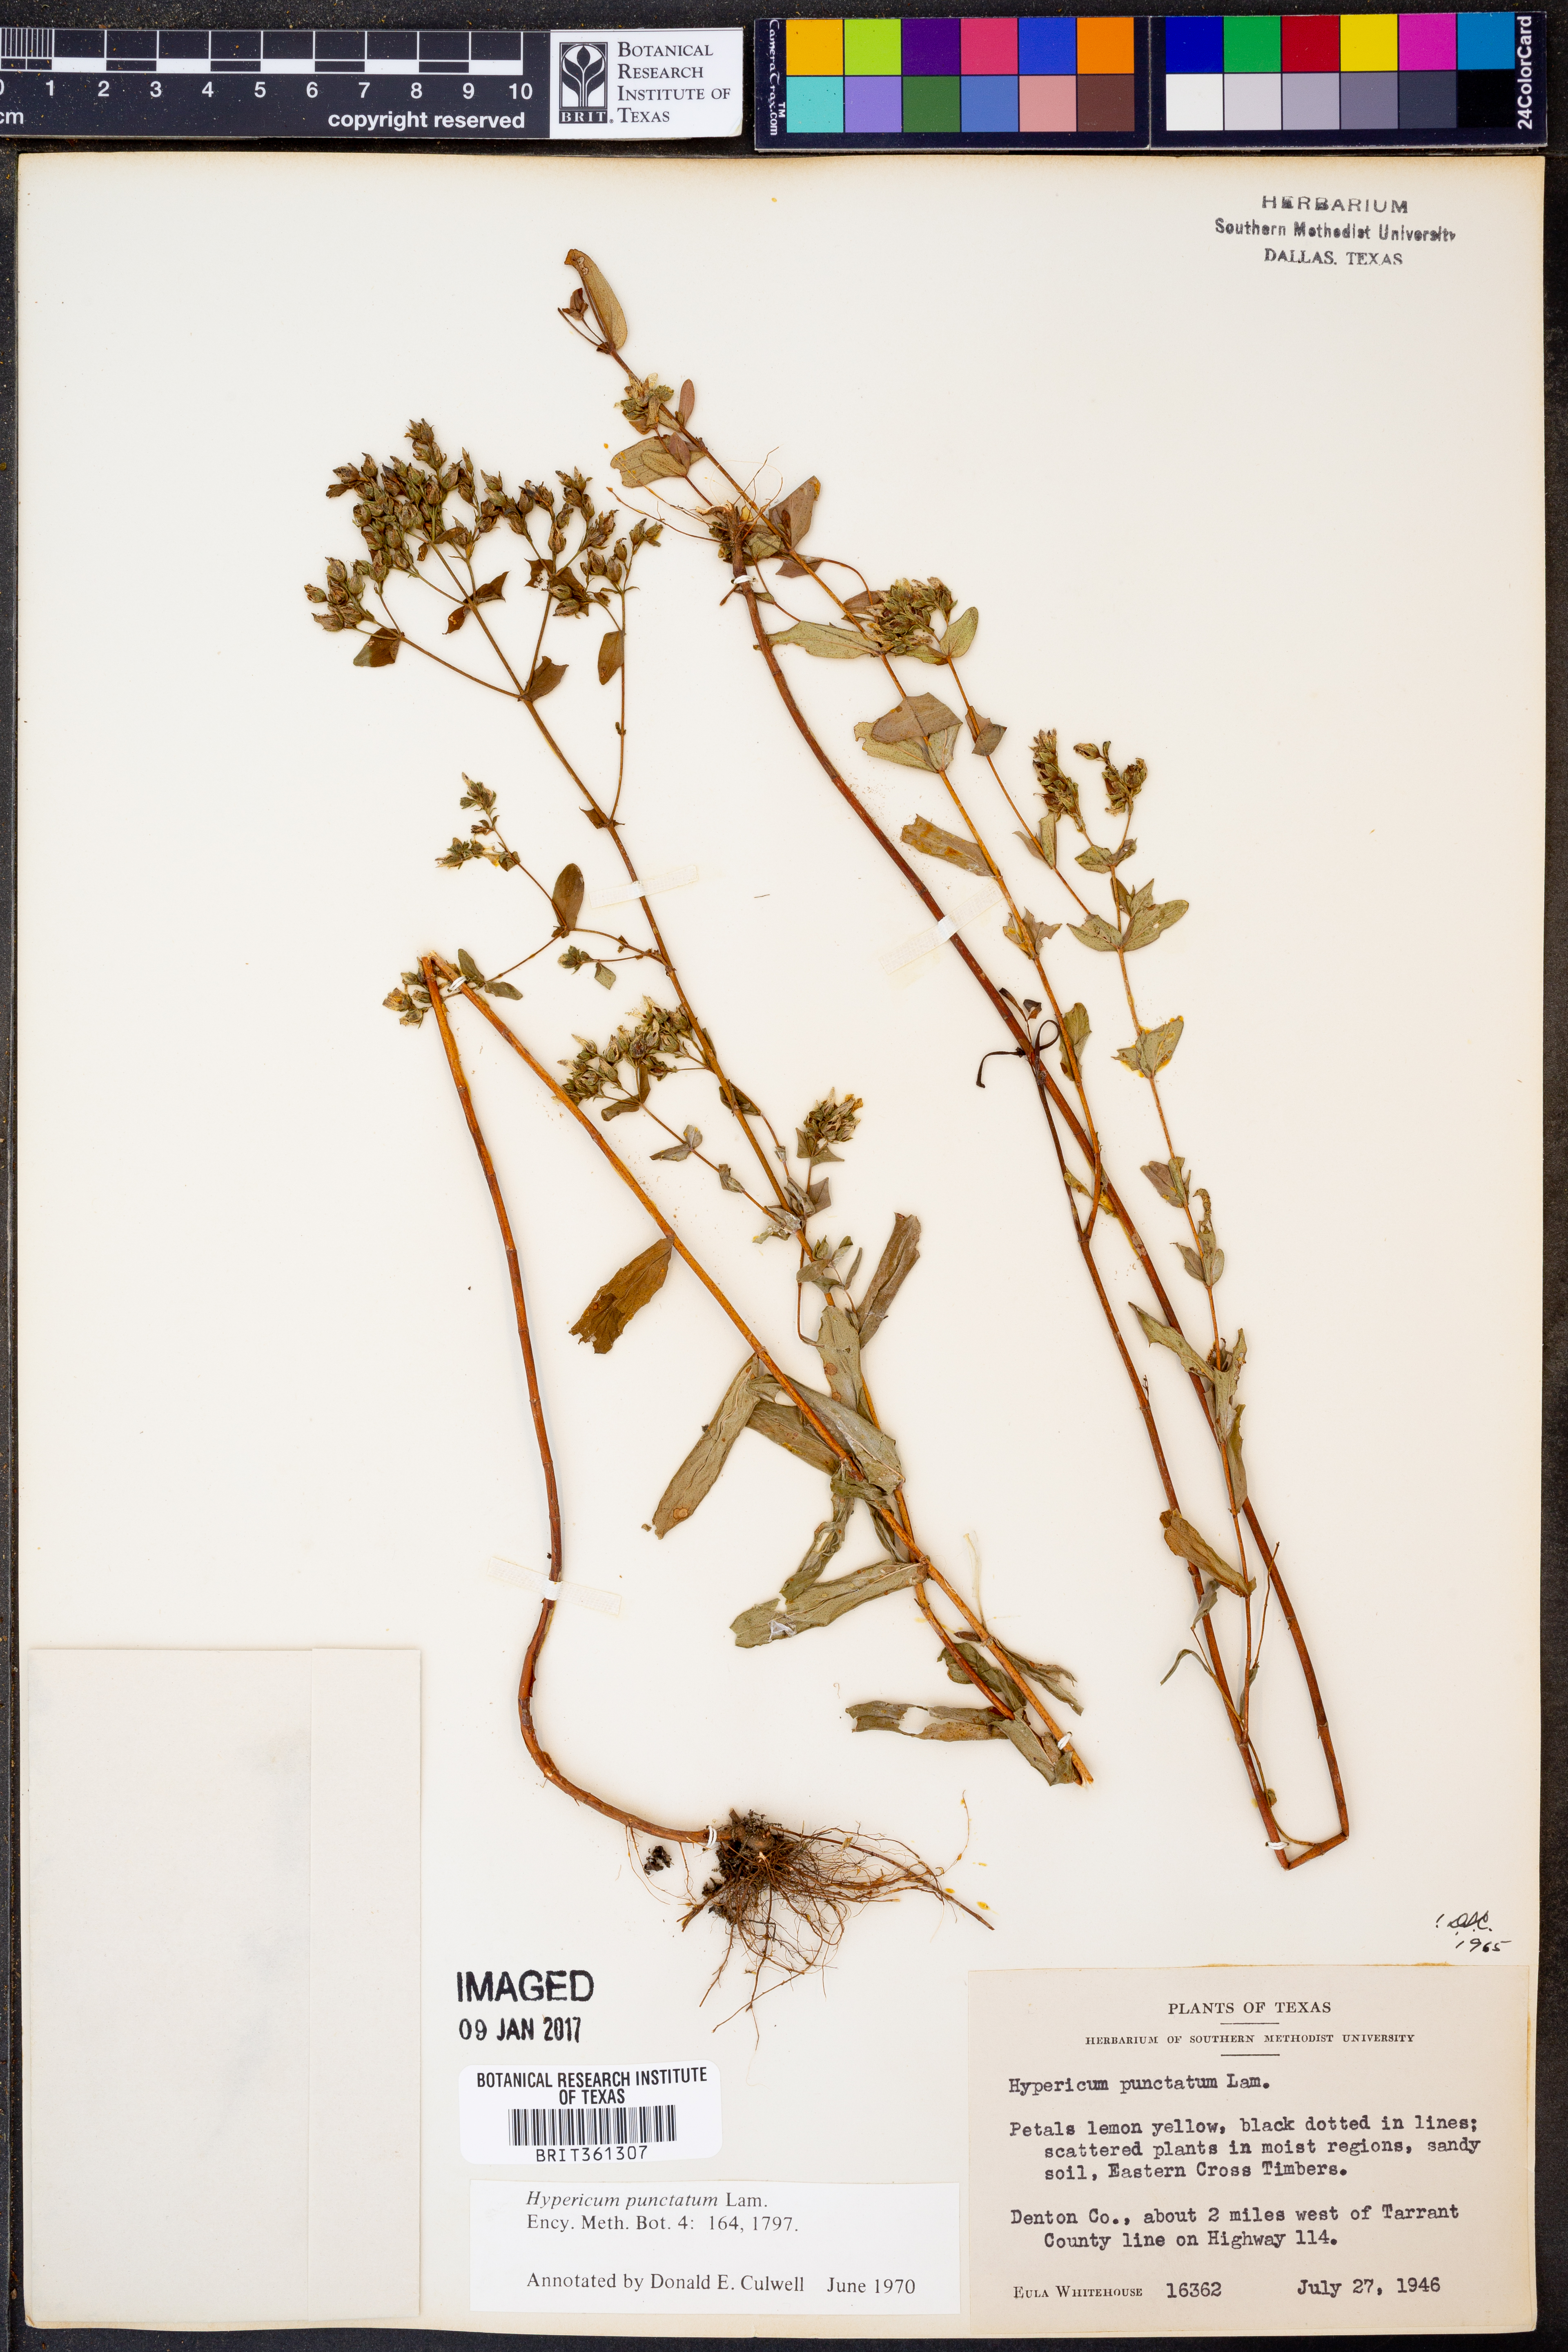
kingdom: Plantae
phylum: Tracheophyta
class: Magnoliopsida
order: Malpighiales
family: Hypericaceae
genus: Hypericum
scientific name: Hypericum punctatum
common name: Spotted st. john's-wort
